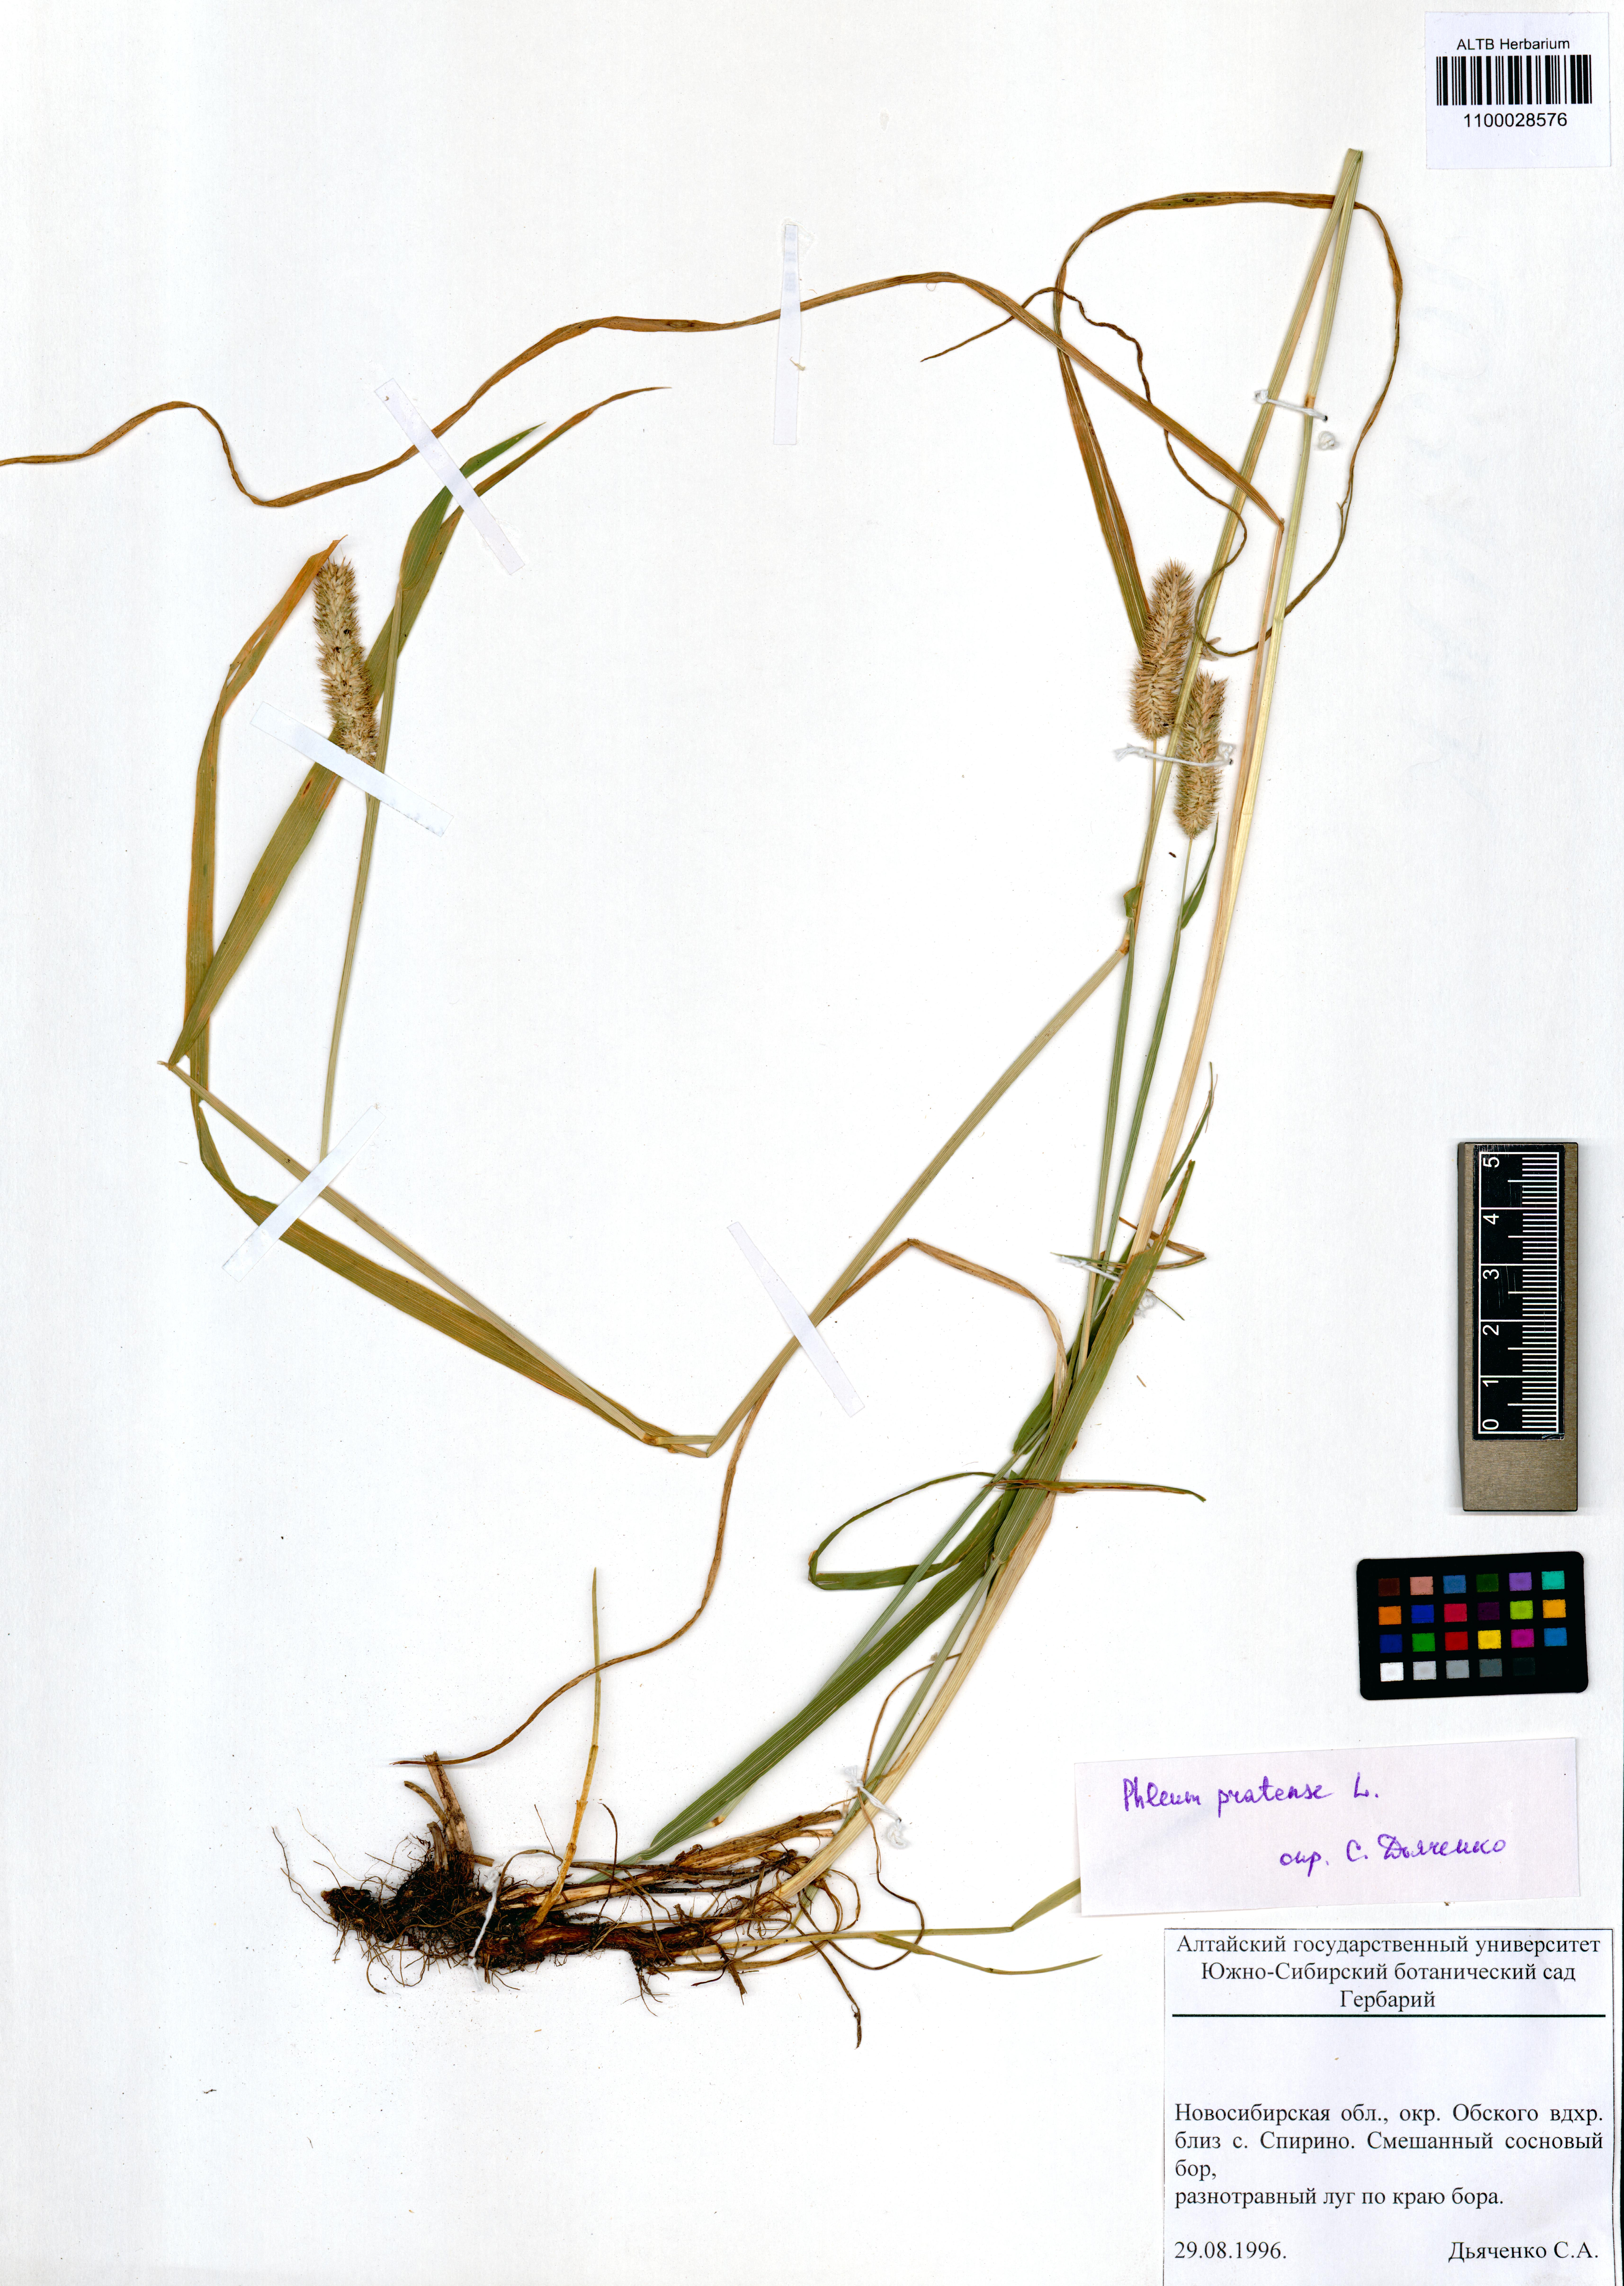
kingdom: Plantae
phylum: Tracheophyta
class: Liliopsida
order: Poales
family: Poaceae
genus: Phleum
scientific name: Phleum pratense
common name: Timothy grass
